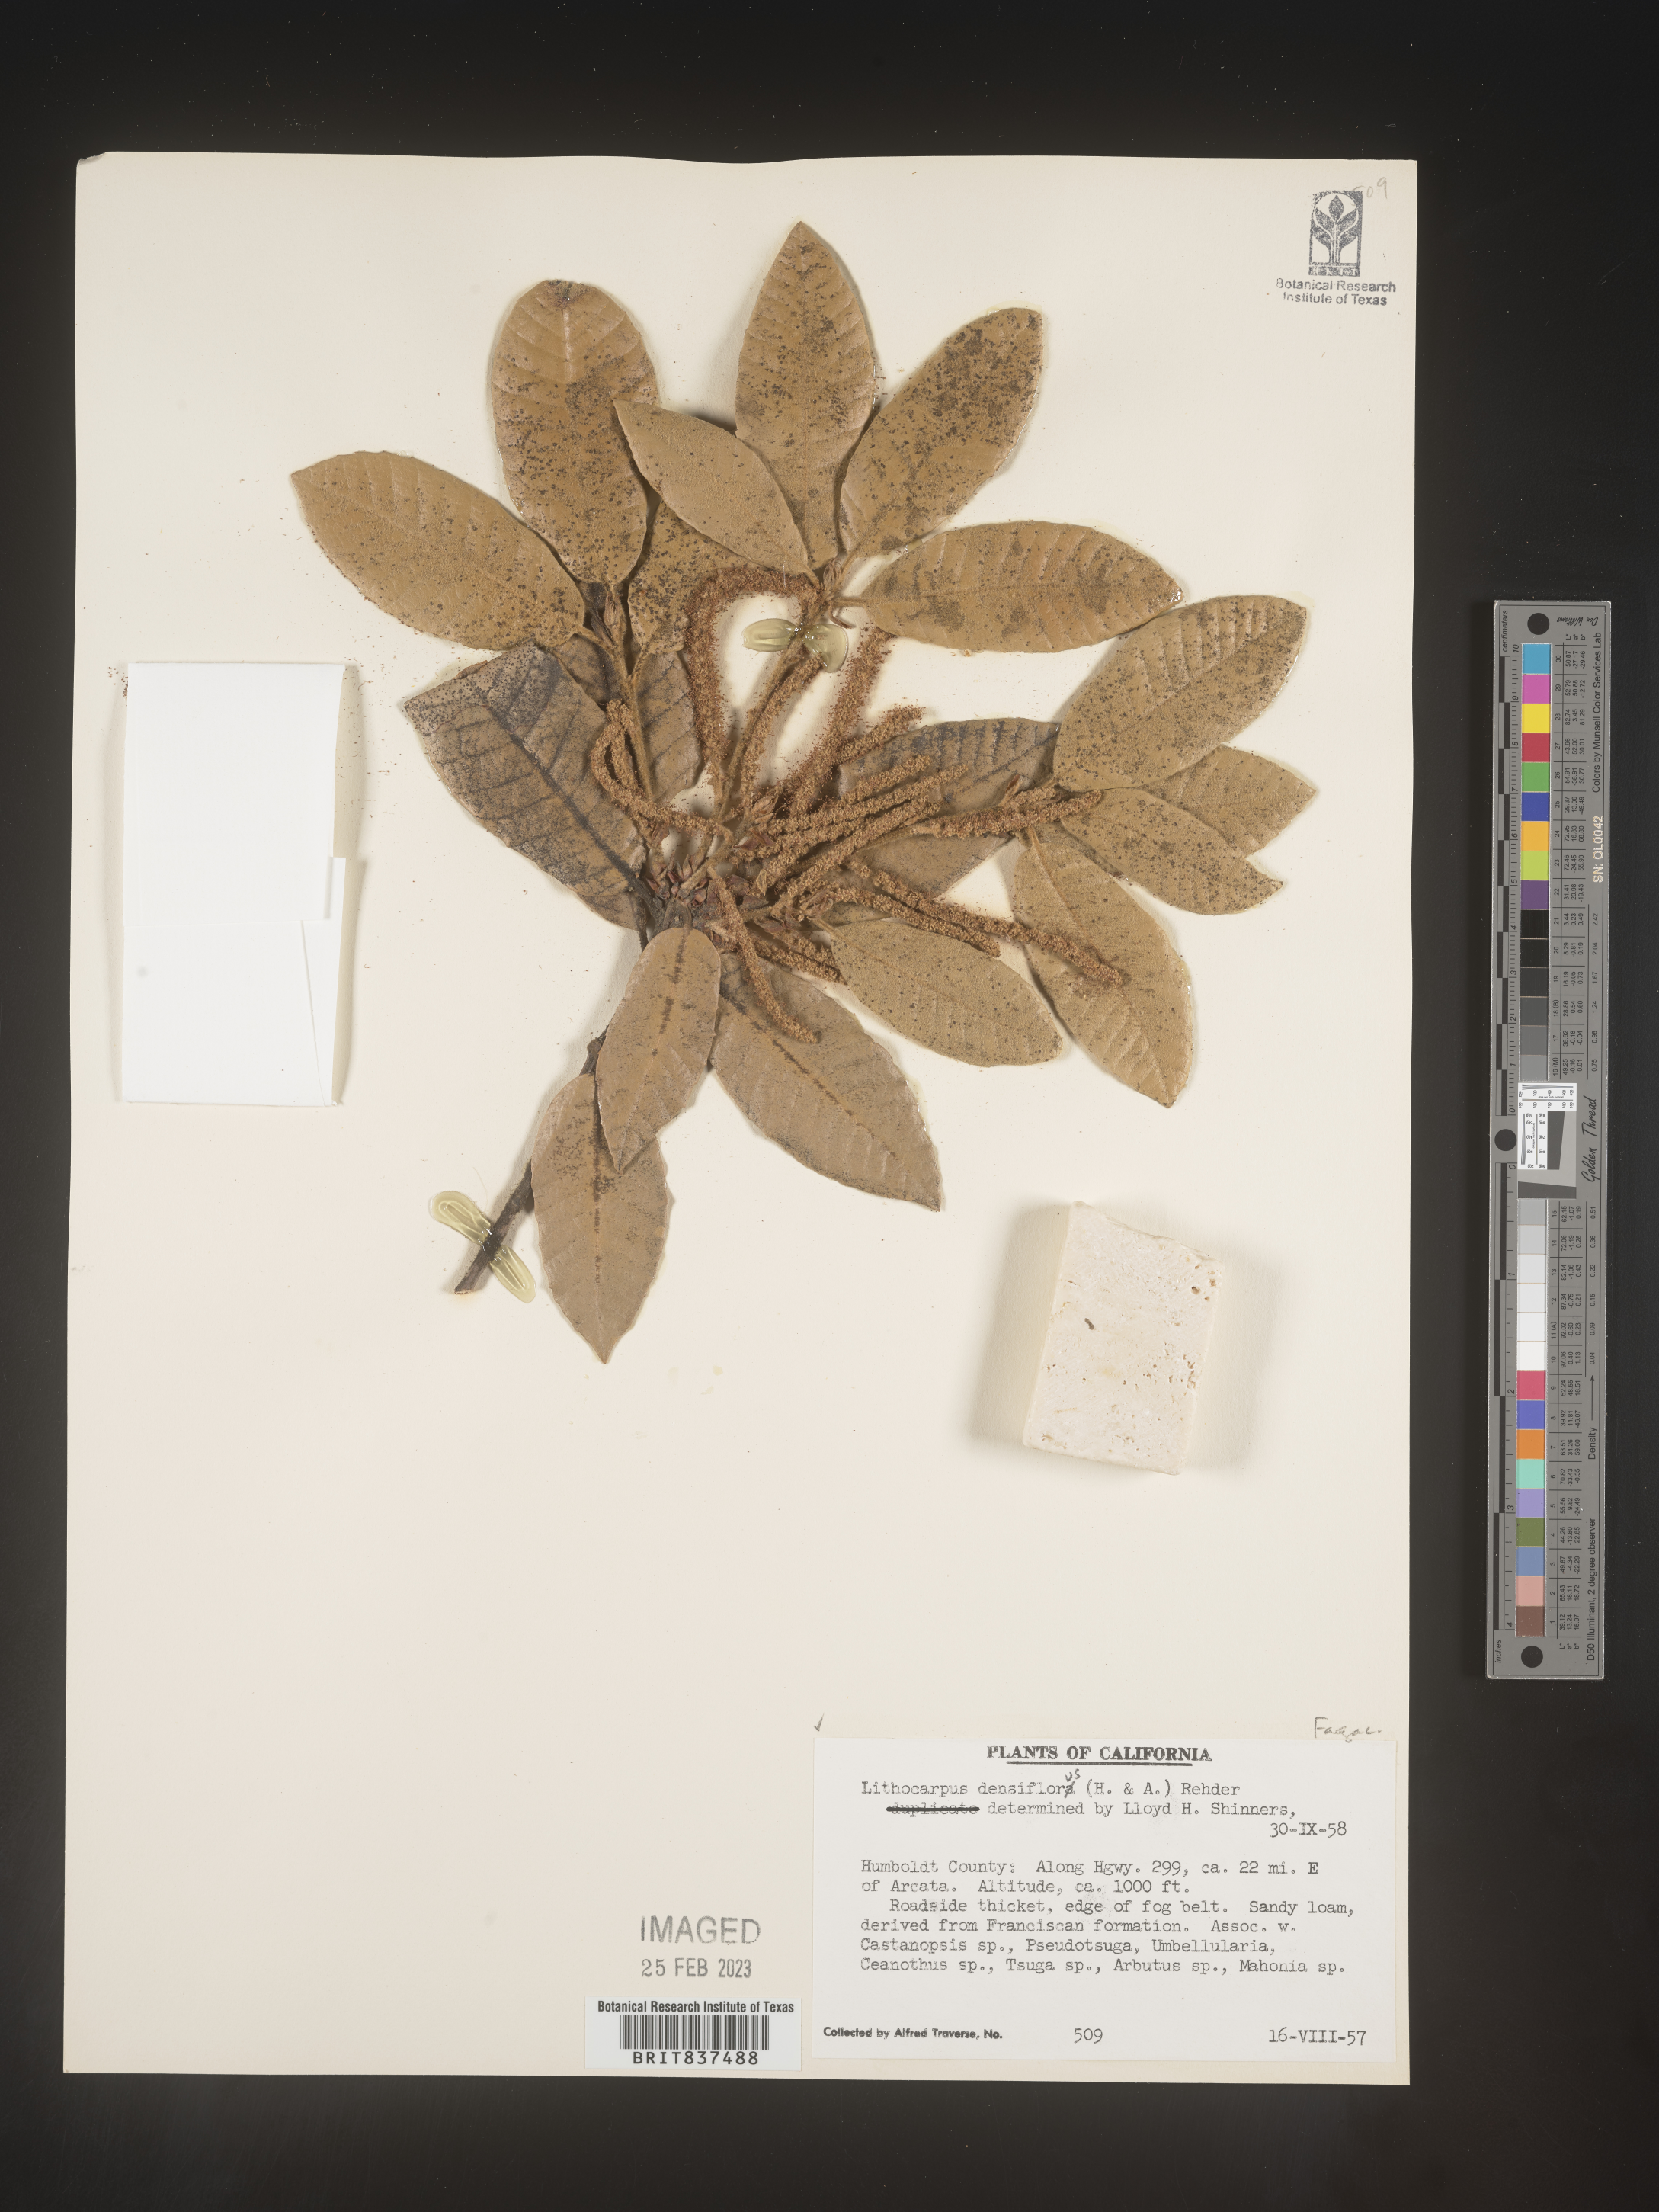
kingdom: Plantae
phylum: Tracheophyta
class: Magnoliopsida
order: Fagales
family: Fagaceae
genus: Lithocarpus
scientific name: Lithocarpus
